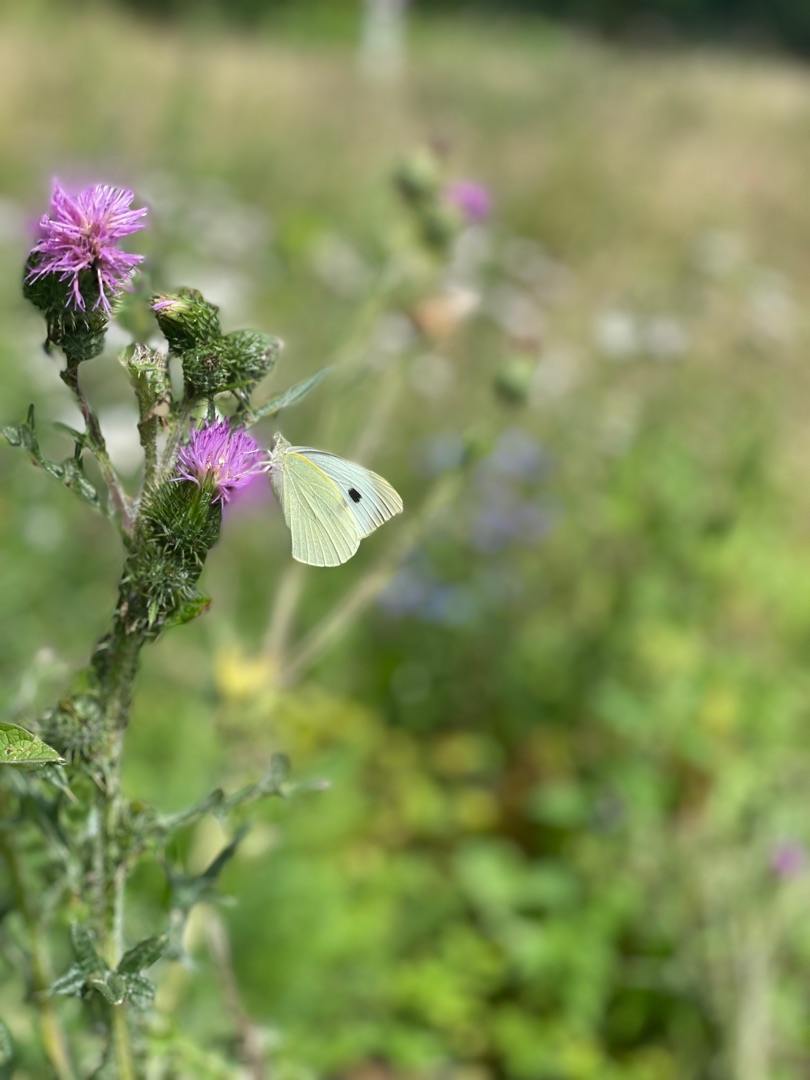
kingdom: Animalia
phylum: Arthropoda
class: Insecta
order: Lepidoptera
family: Pieridae
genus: Pieris
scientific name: Pieris brassicae
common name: Stor kålsommerfugl
